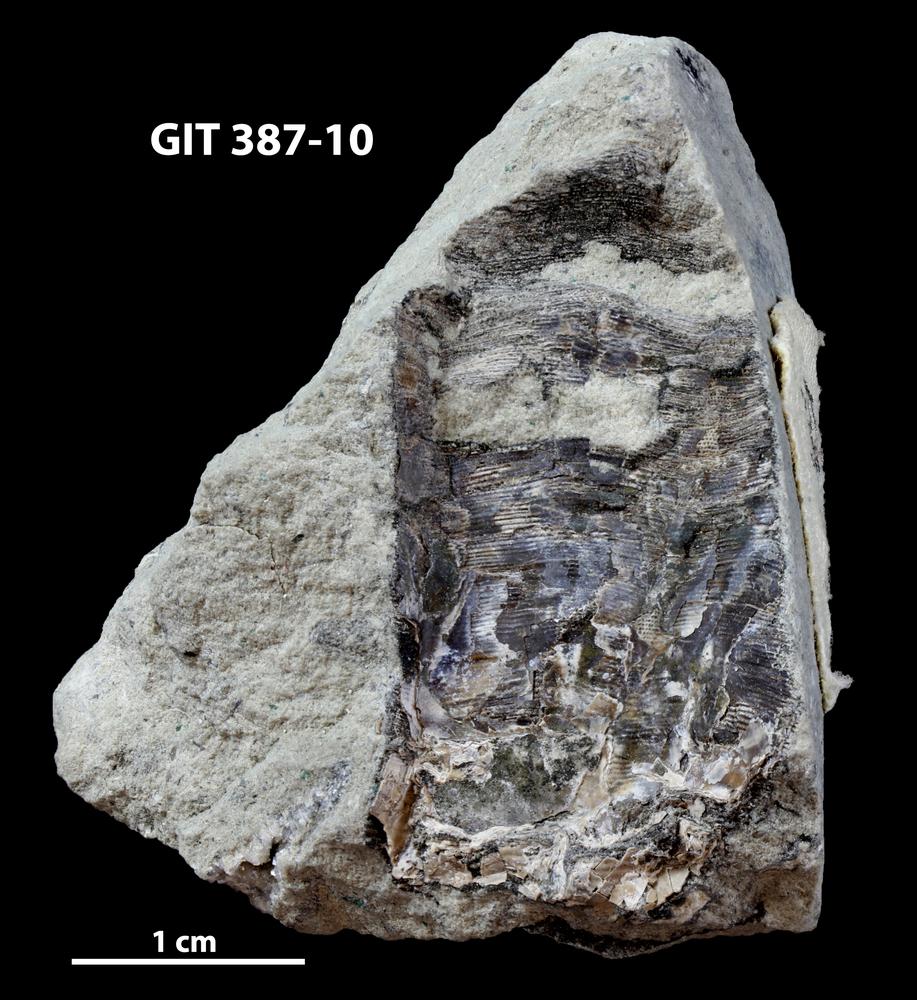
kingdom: Animalia
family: Sulcavitidae
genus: Dorsolinevitus
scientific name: Dorsolinevitus
